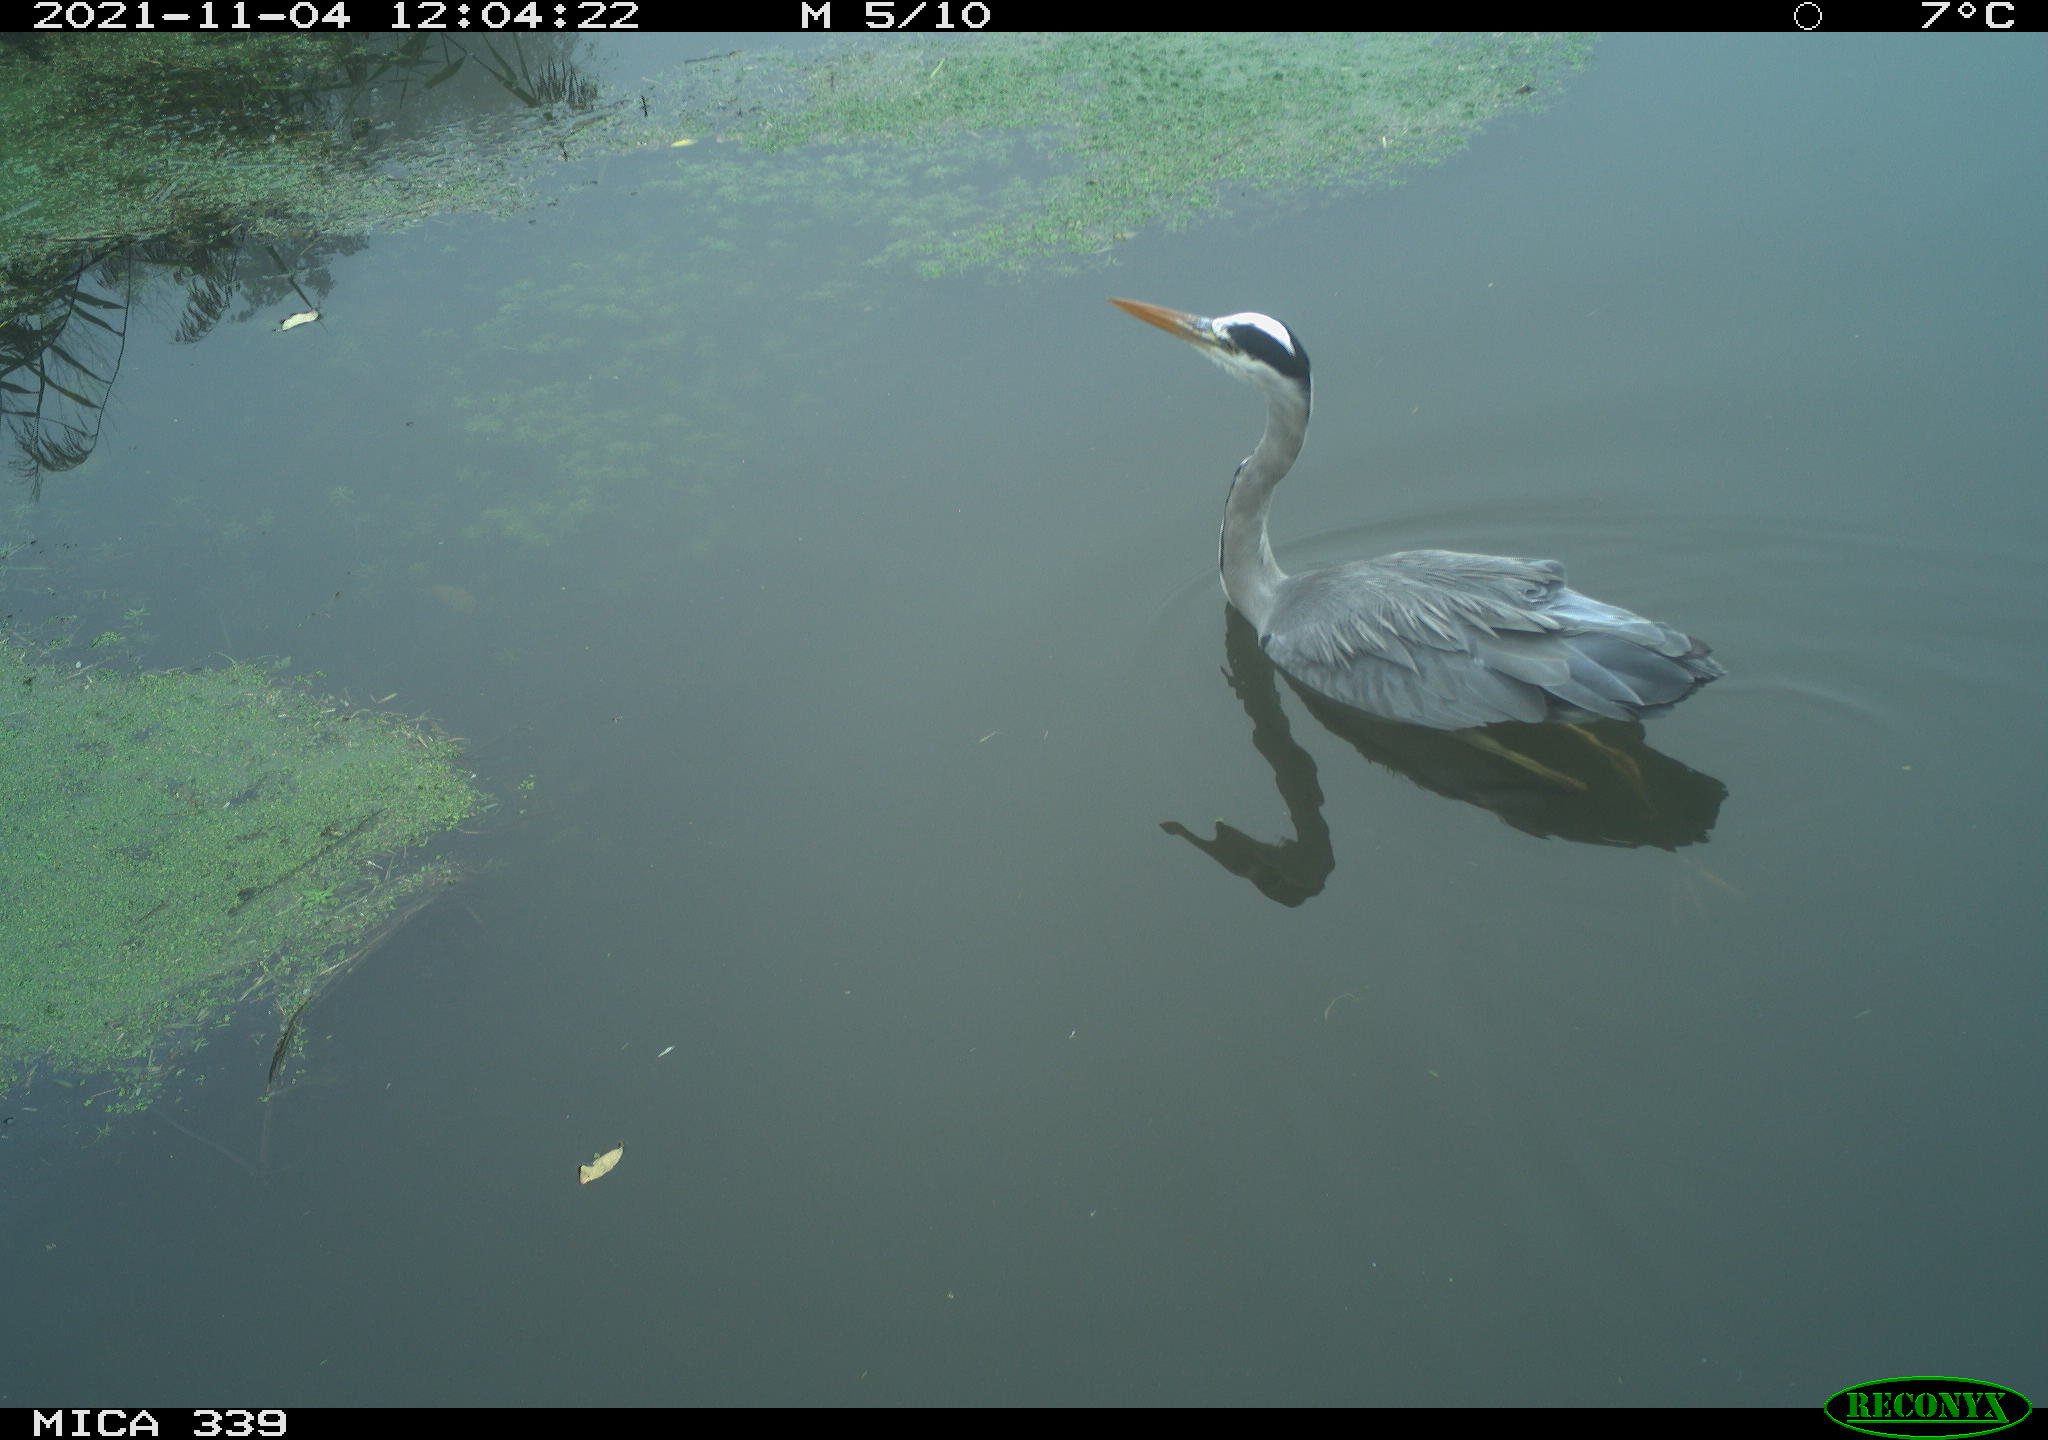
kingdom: Animalia
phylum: Chordata
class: Aves
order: Pelecaniformes
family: Ardeidae
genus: Ardea
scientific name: Ardea cinerea
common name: Grey heron
